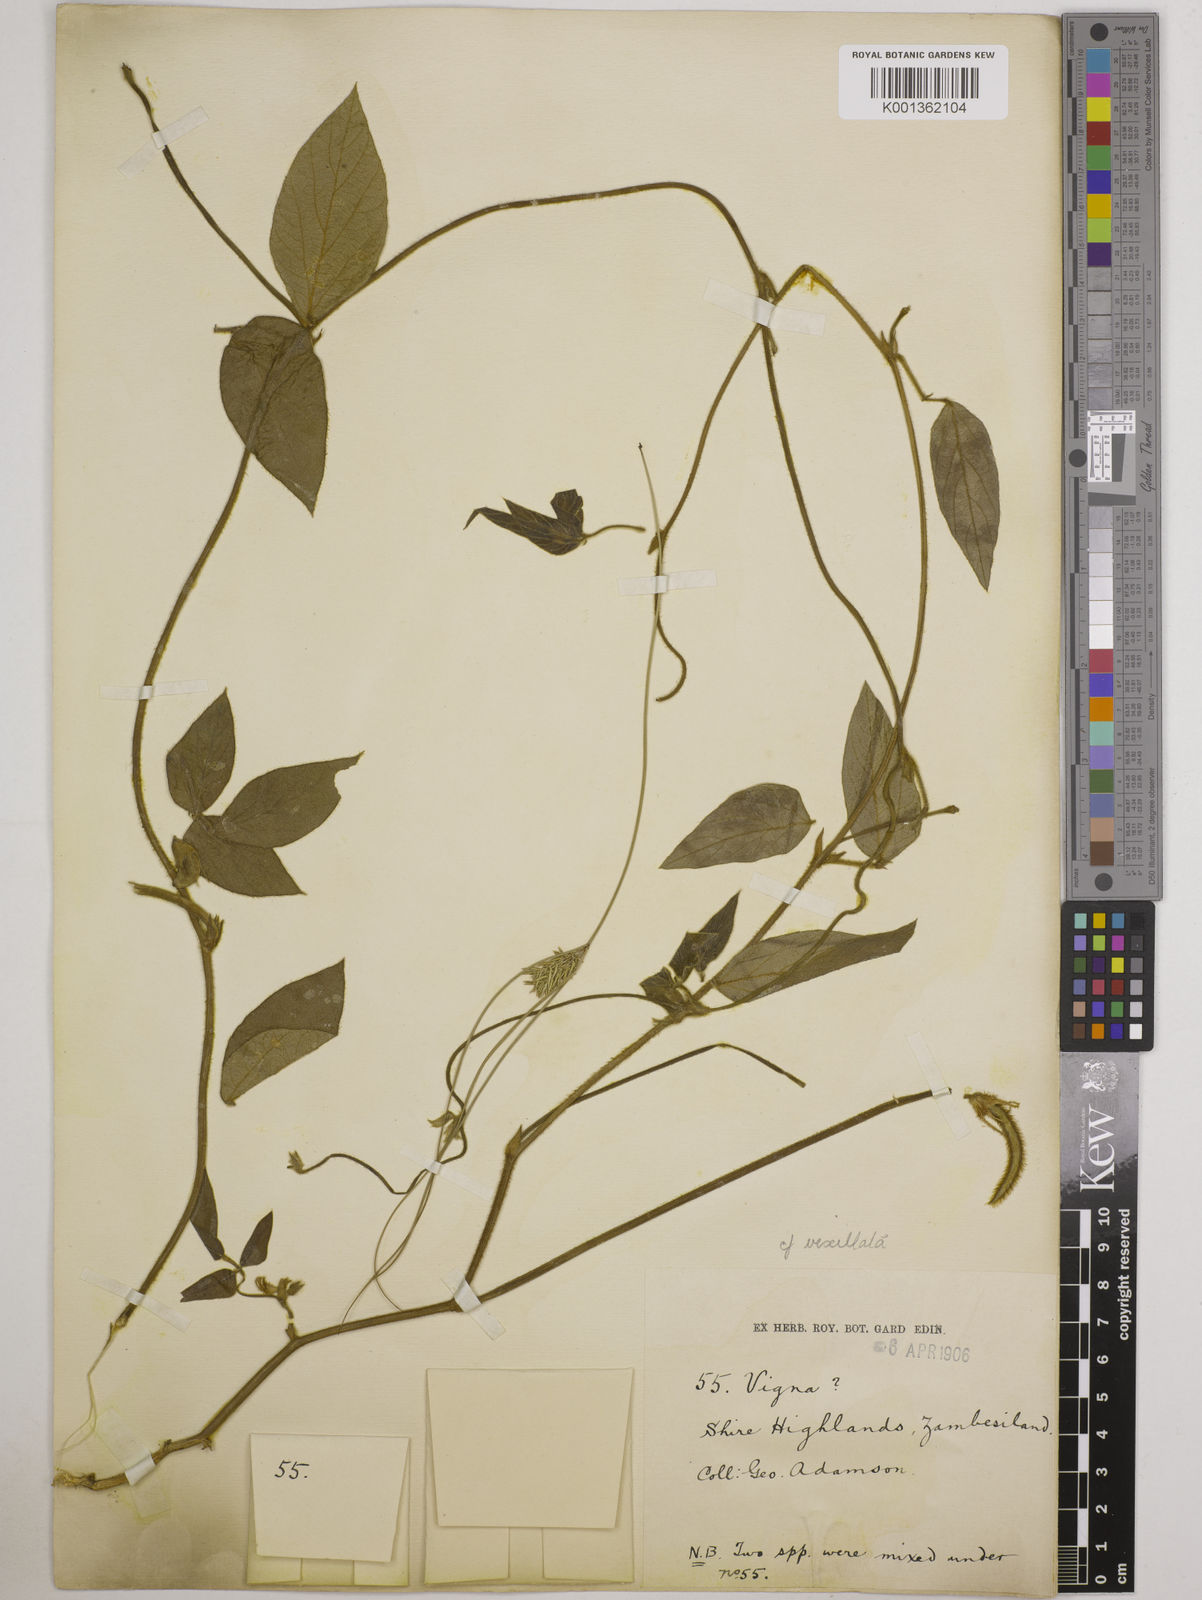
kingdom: Plantae
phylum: Tracheophyta
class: Magnoliopsida
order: Fabales
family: Fabaceae
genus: Vigna
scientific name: Vigna vexillata
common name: Zombi pea
